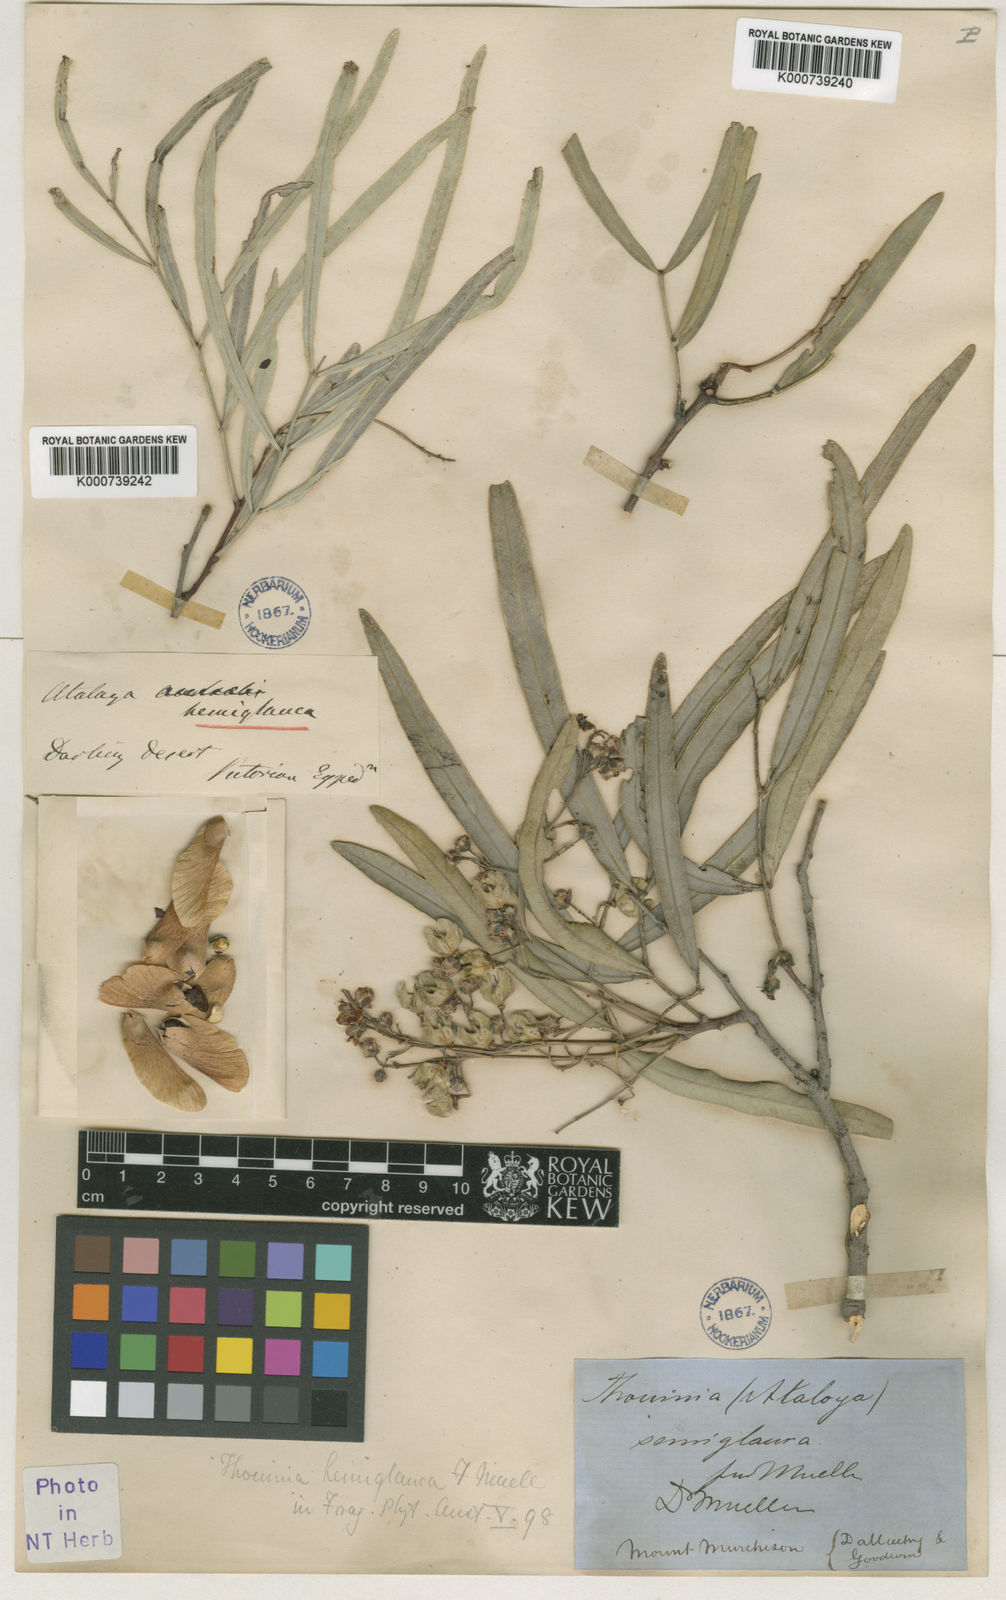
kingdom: Plantae
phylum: Tracheophyta
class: Magnoliopsida
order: Sapindales
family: Sapindaceae
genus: Atalaya
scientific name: Atalaya hemiglauca
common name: Western whitewood
